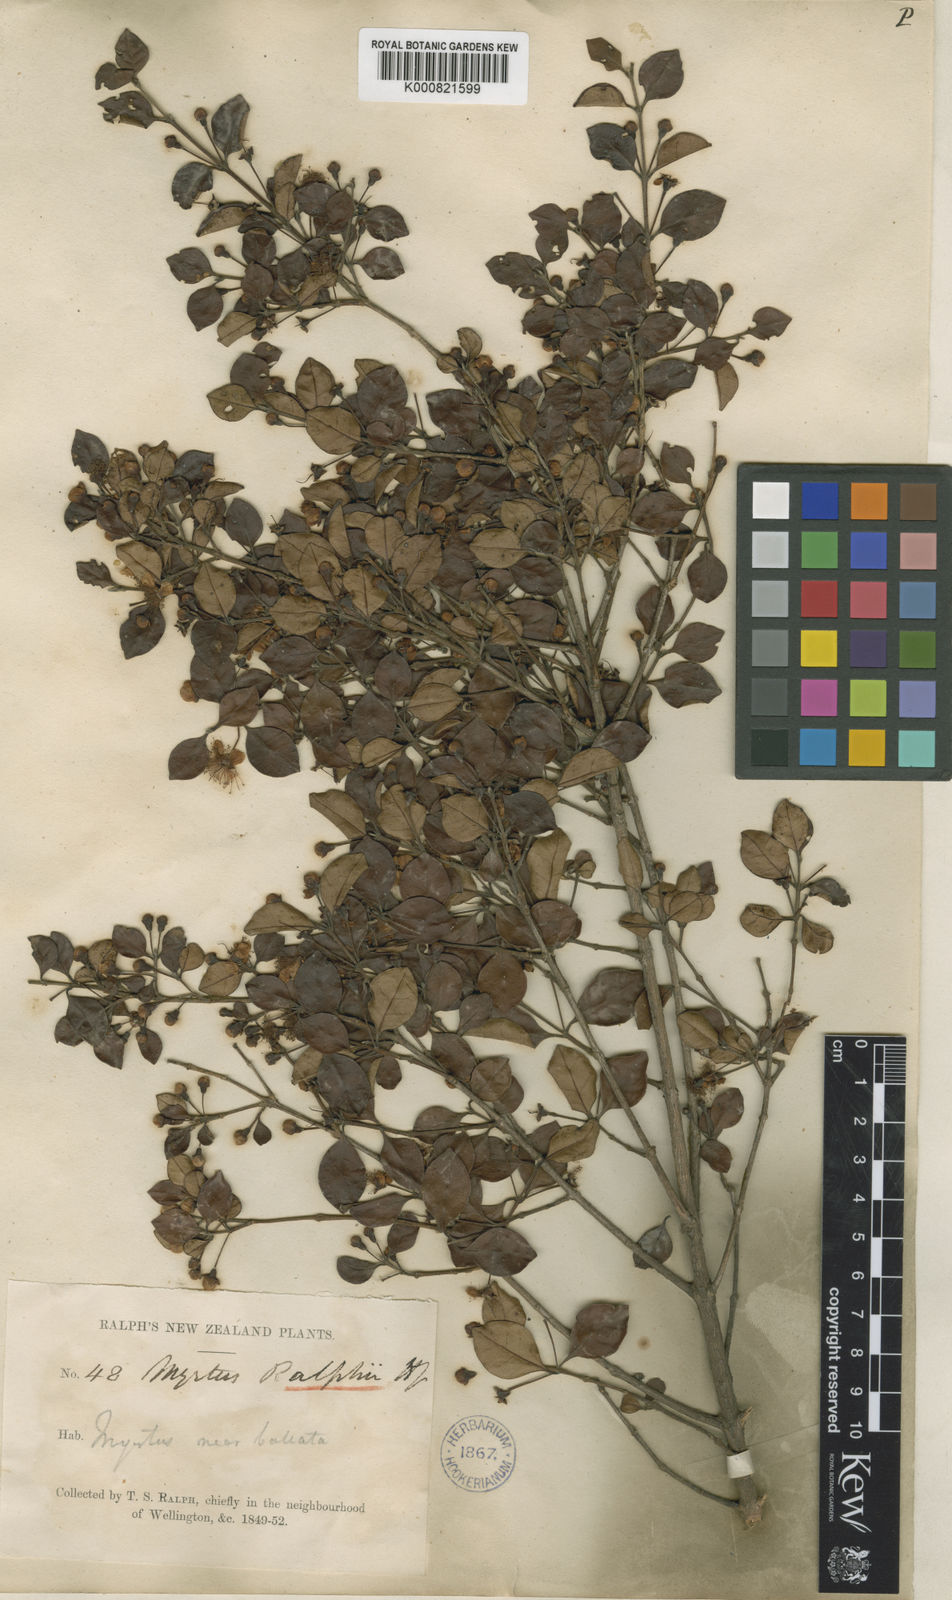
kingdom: Plantae
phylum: Tracheophyta
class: Magnoliopsida
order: Myrtales
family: Myrtaceae
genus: Lophomyrtus
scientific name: Lophomyrtus ralphii
